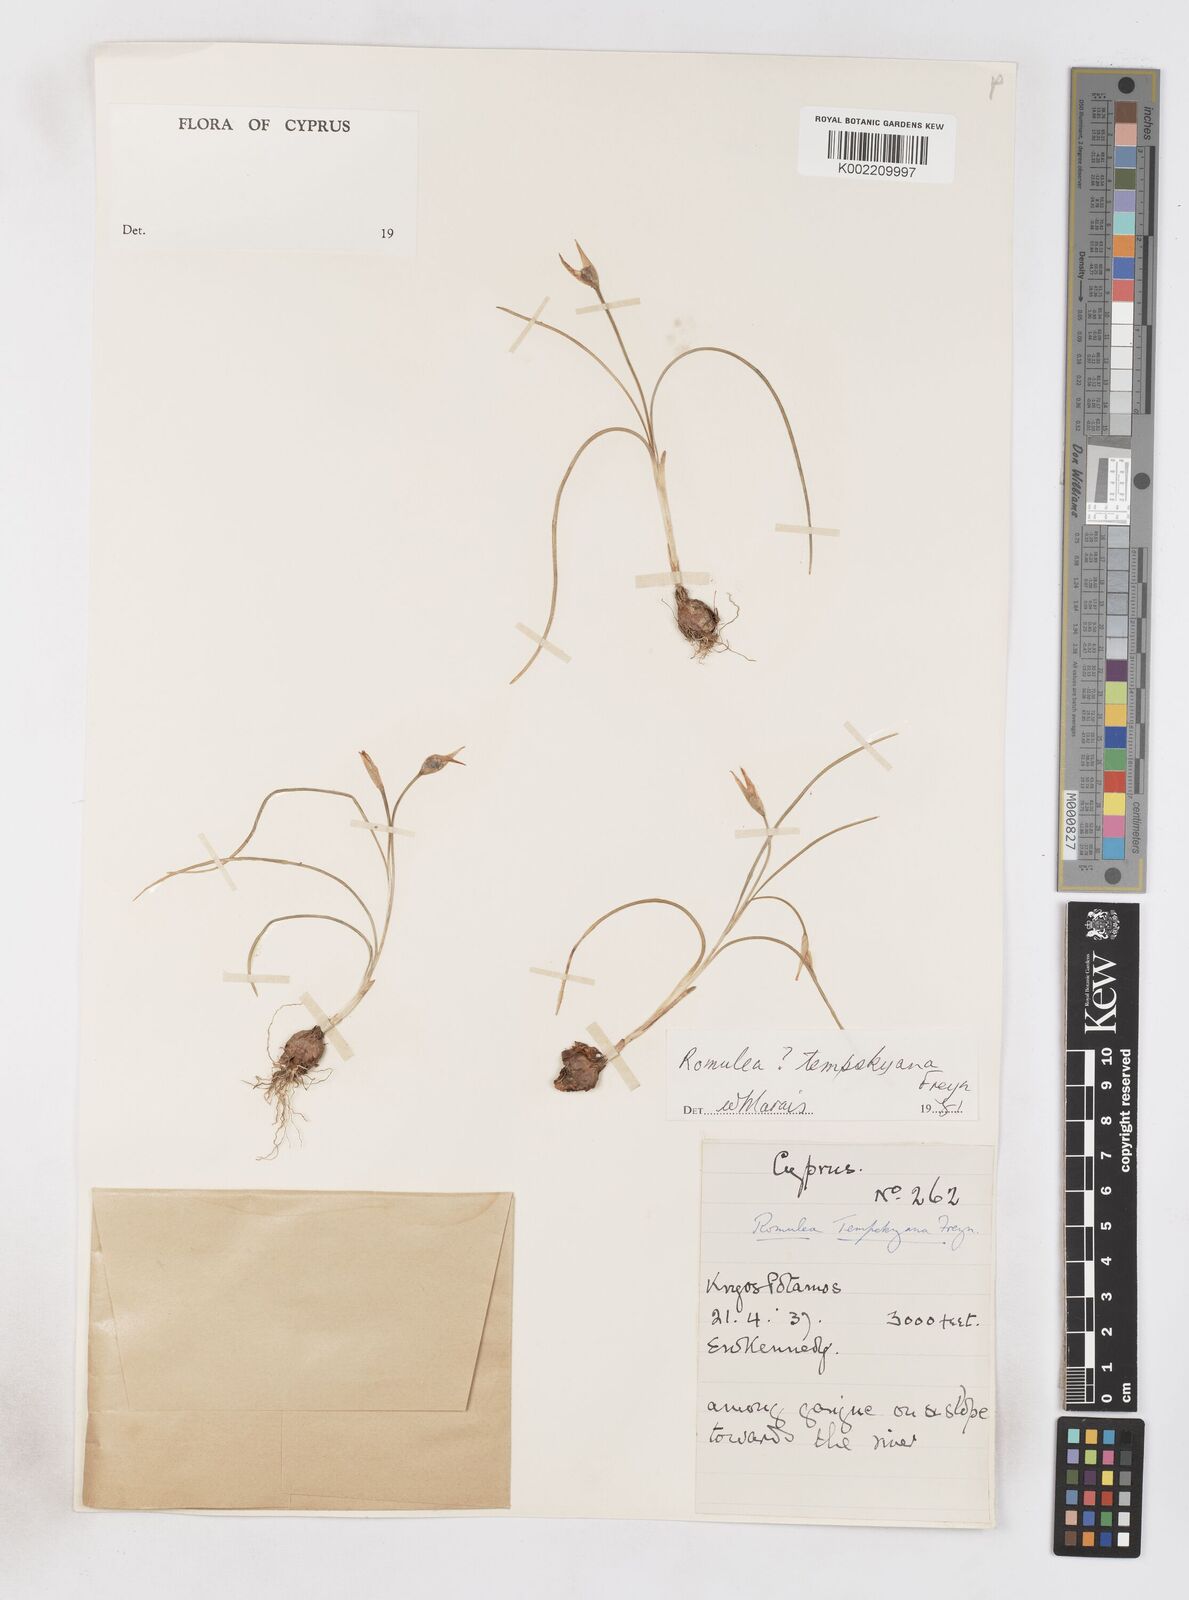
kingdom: Plantae
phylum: Tracheophyta
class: Liliopsida
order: Asparagales
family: Iridaceae
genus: Romulea
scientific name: Romulea tempskyana
